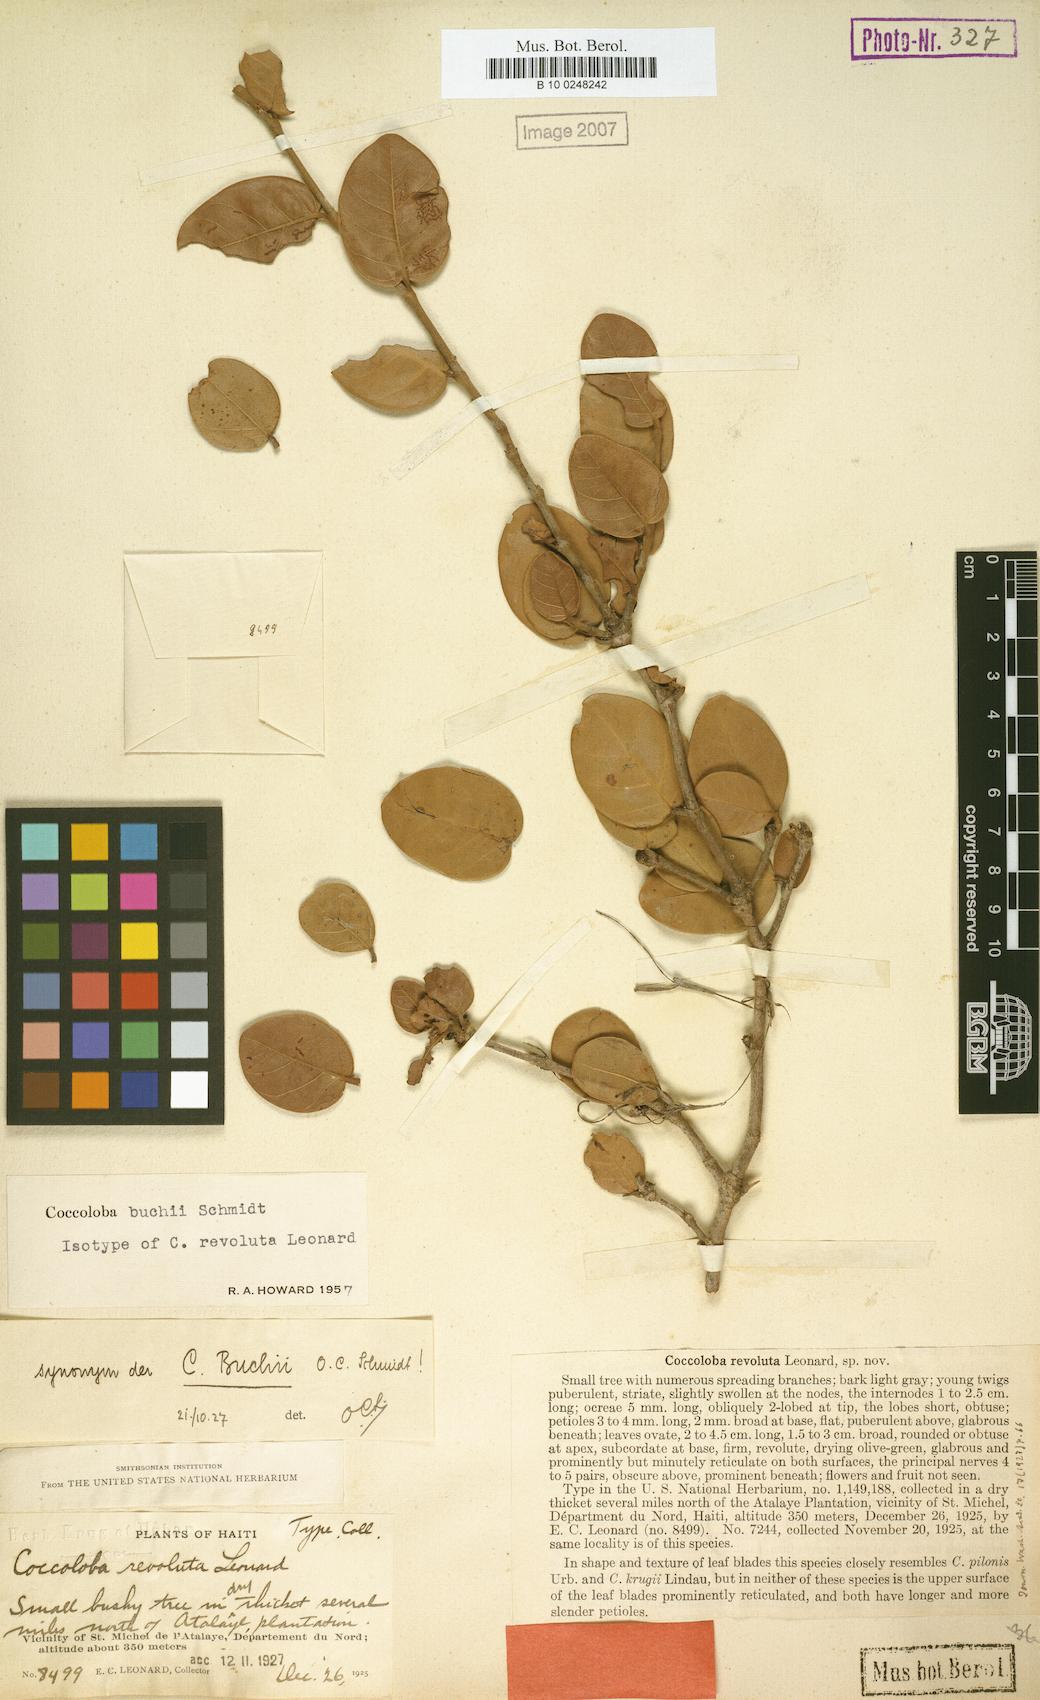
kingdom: Plantae
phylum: Tracheophyta
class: Magnoliopsida
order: Caryophyllales
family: Polygonaceae
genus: Coccoloba
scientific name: Coccoloba buchii
